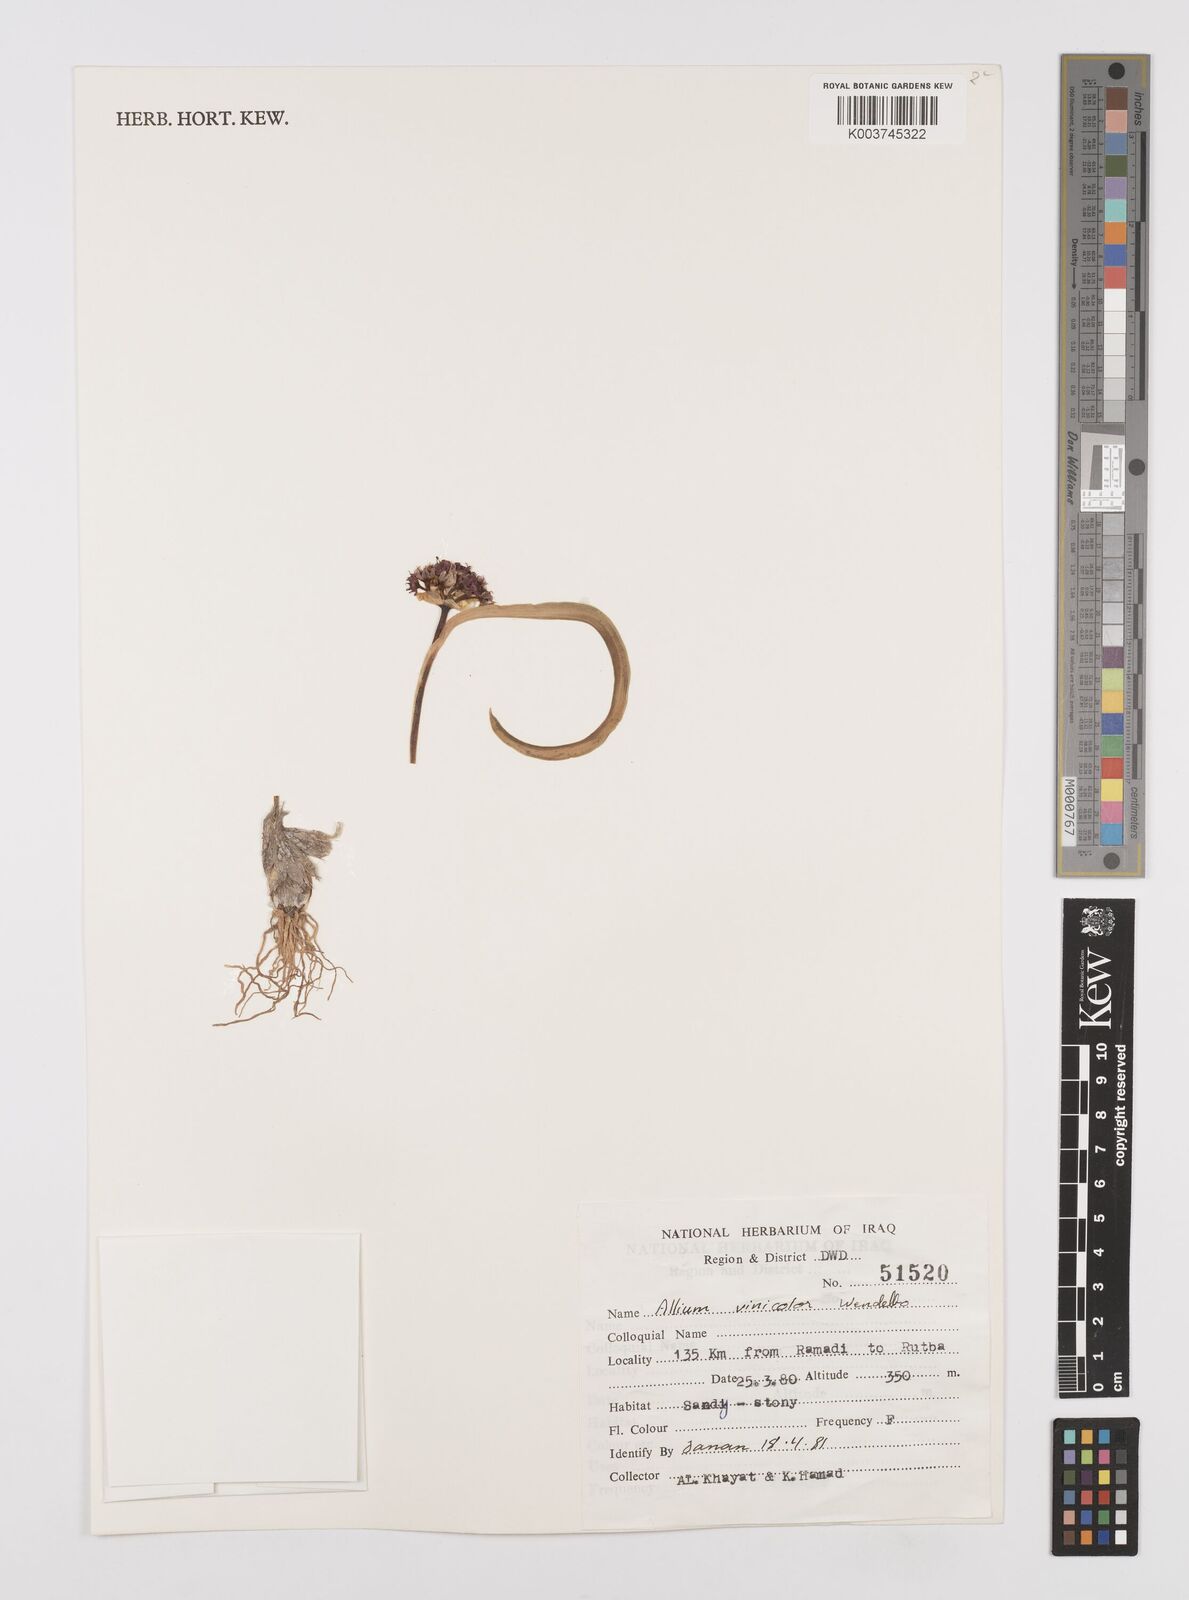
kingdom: Plantae
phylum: Tracheophyta
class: Liliopsida
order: Asparagales
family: Amaryllidaceae
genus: Allium
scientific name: Allium vinicolor
